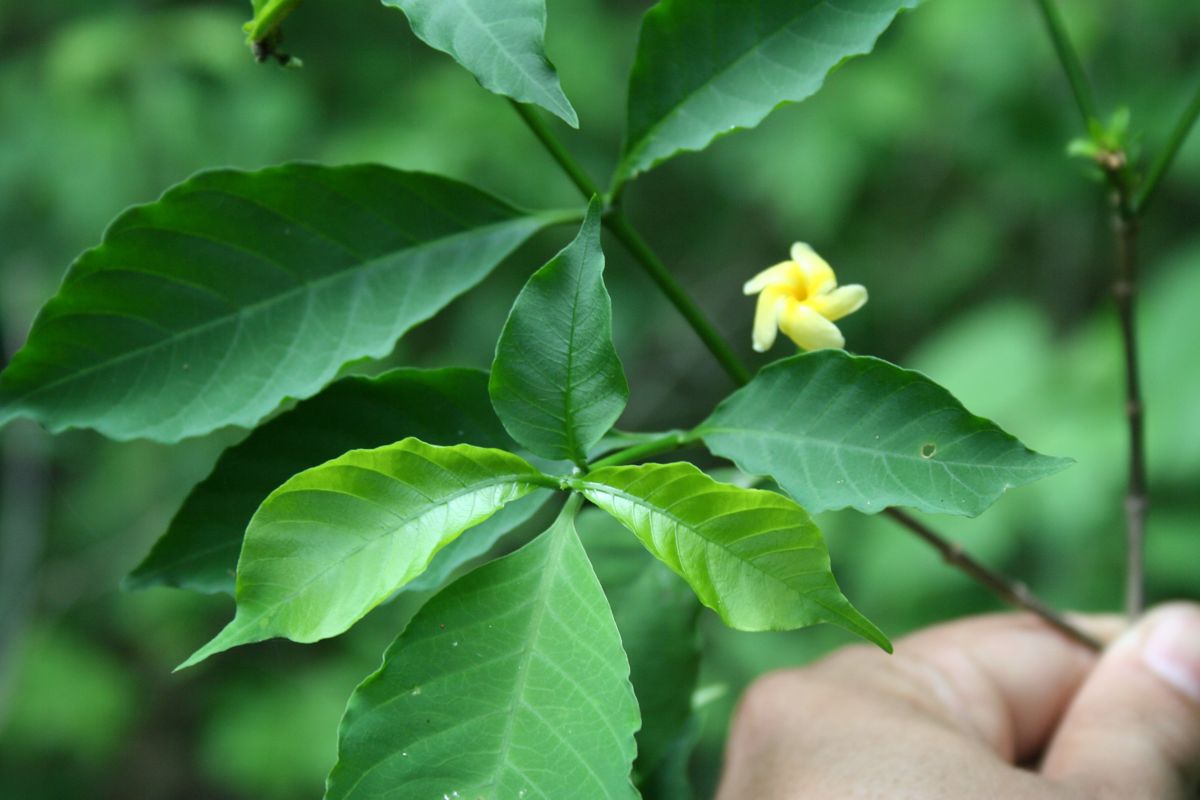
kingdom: Plantae
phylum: Tracheophyta
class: Magnoliopsida
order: Gentianales
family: Apocynaceae
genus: Tabernaemontana
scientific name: Tabernaemontana eubracteata
